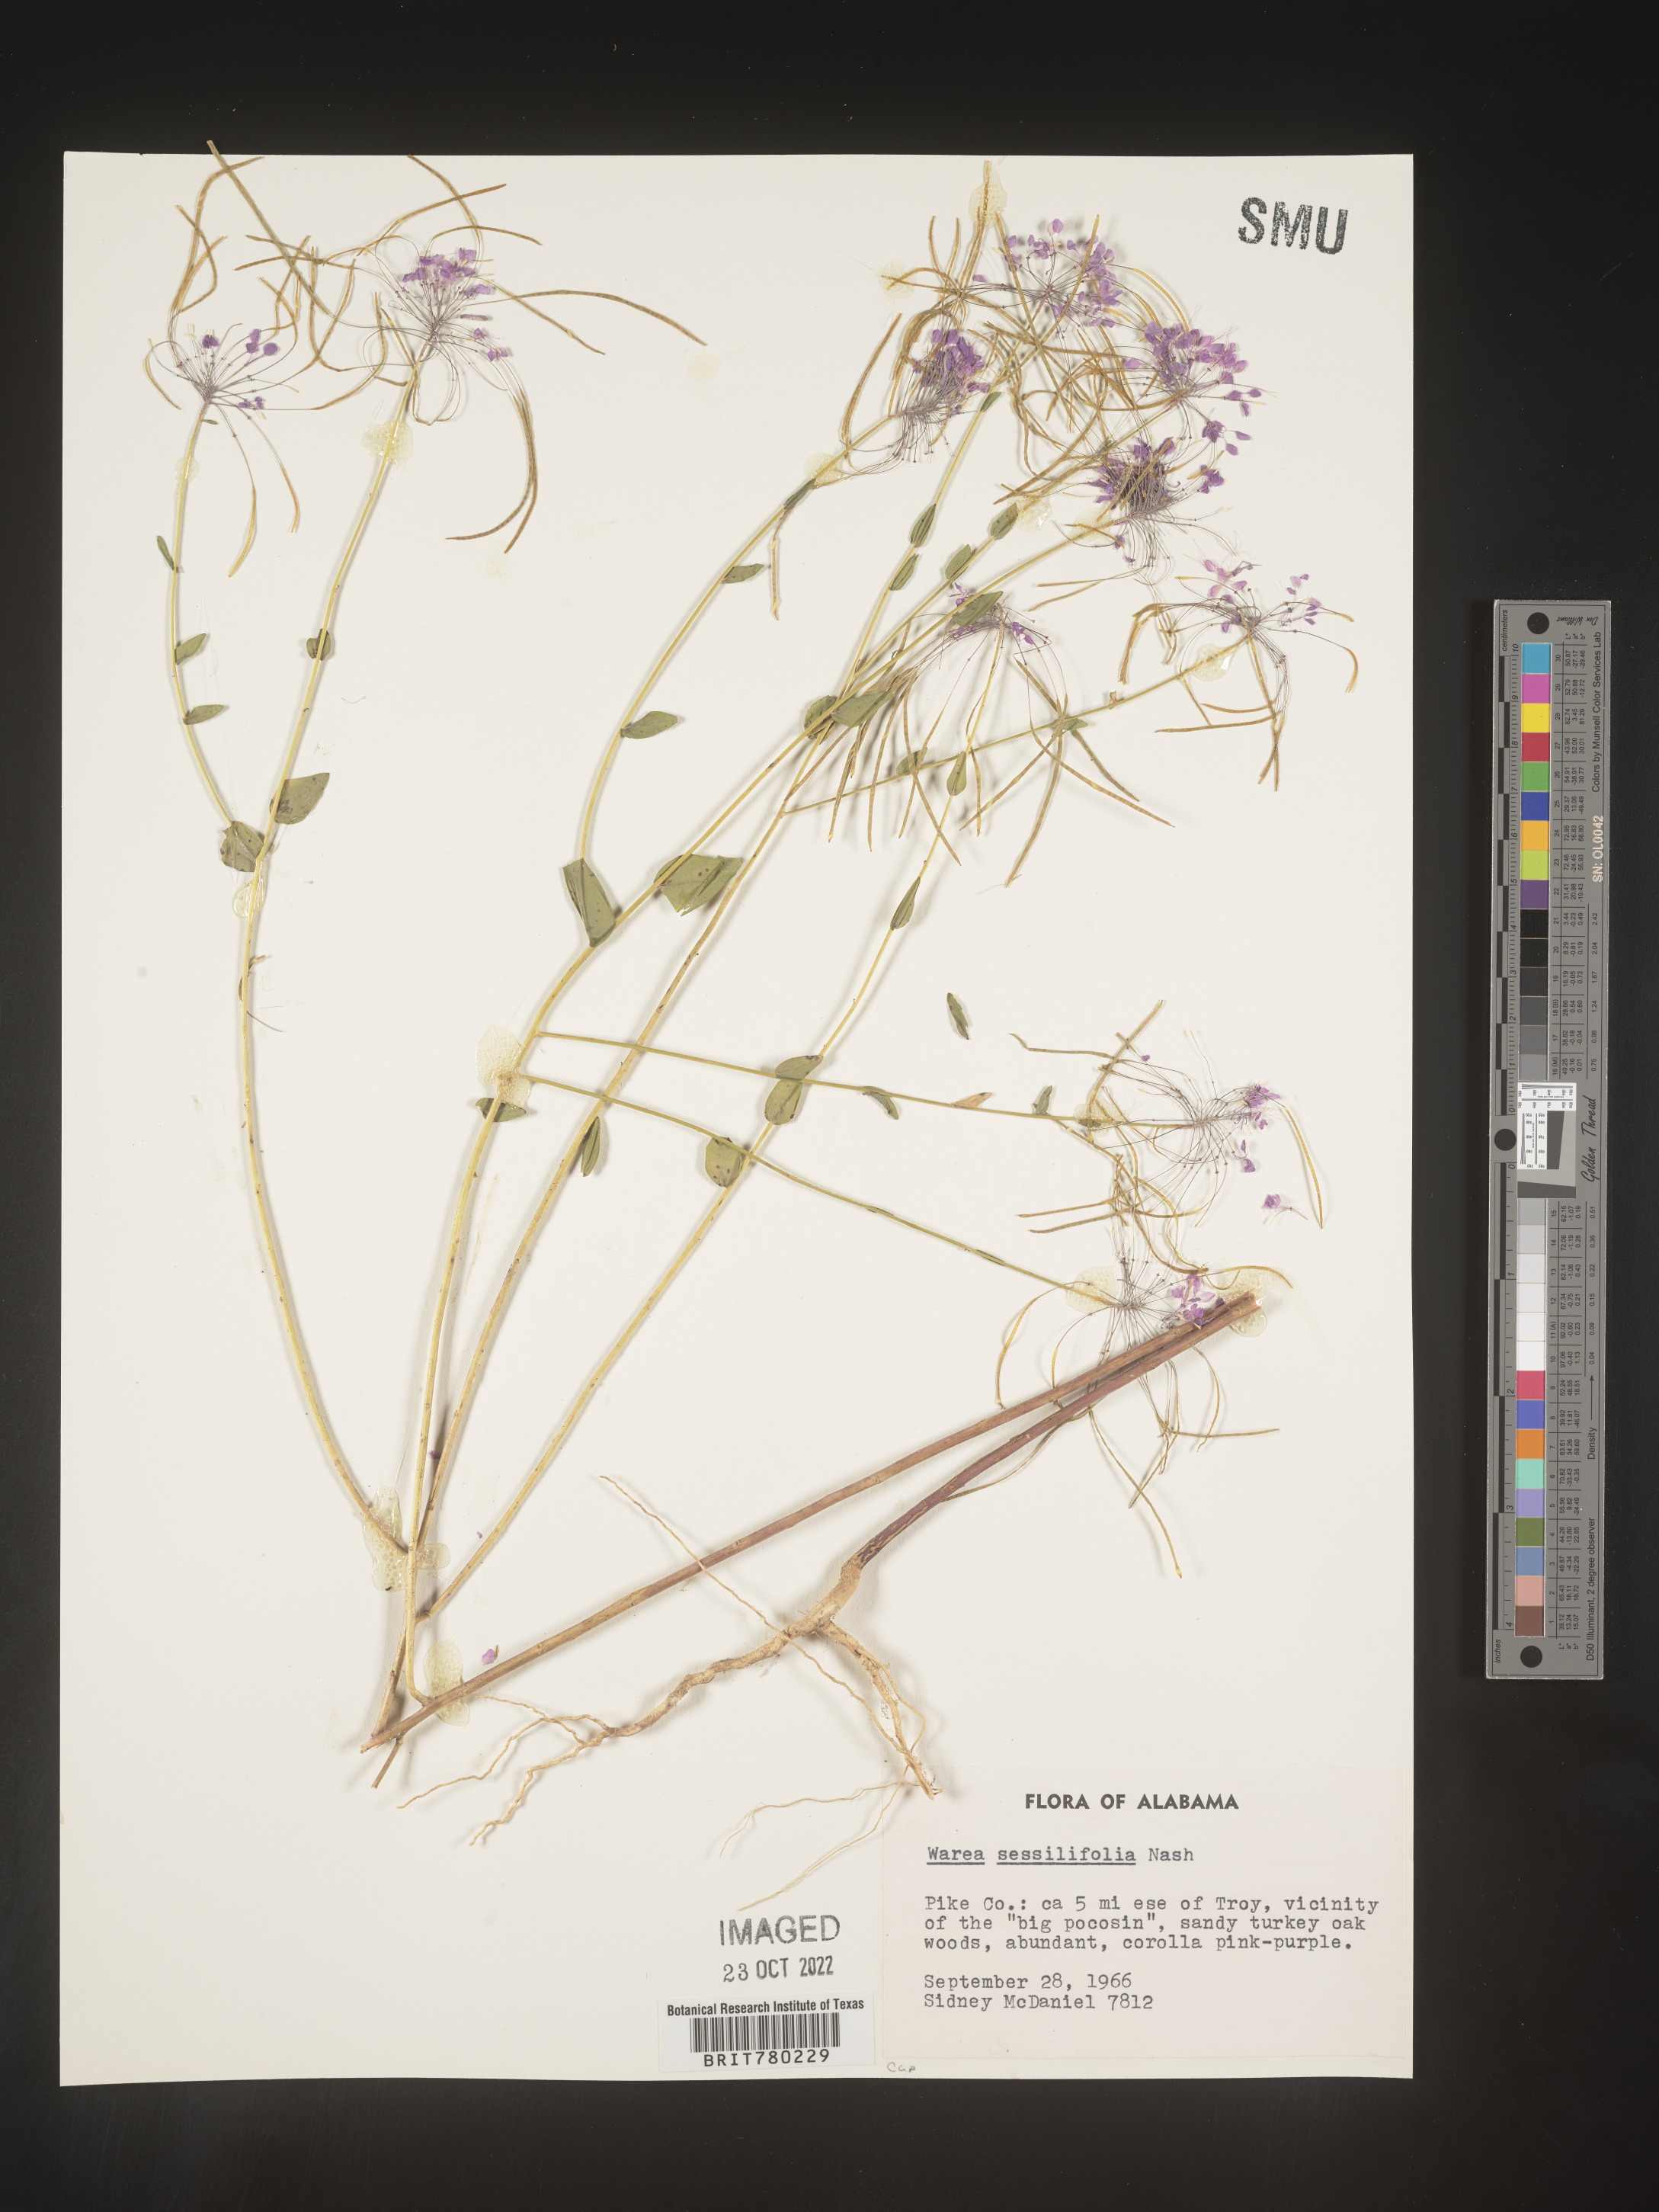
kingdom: Plantae
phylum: Tracheophyta
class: Magnoliopsida
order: Brassicales
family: Brassicaceae
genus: Warea
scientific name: Warea
